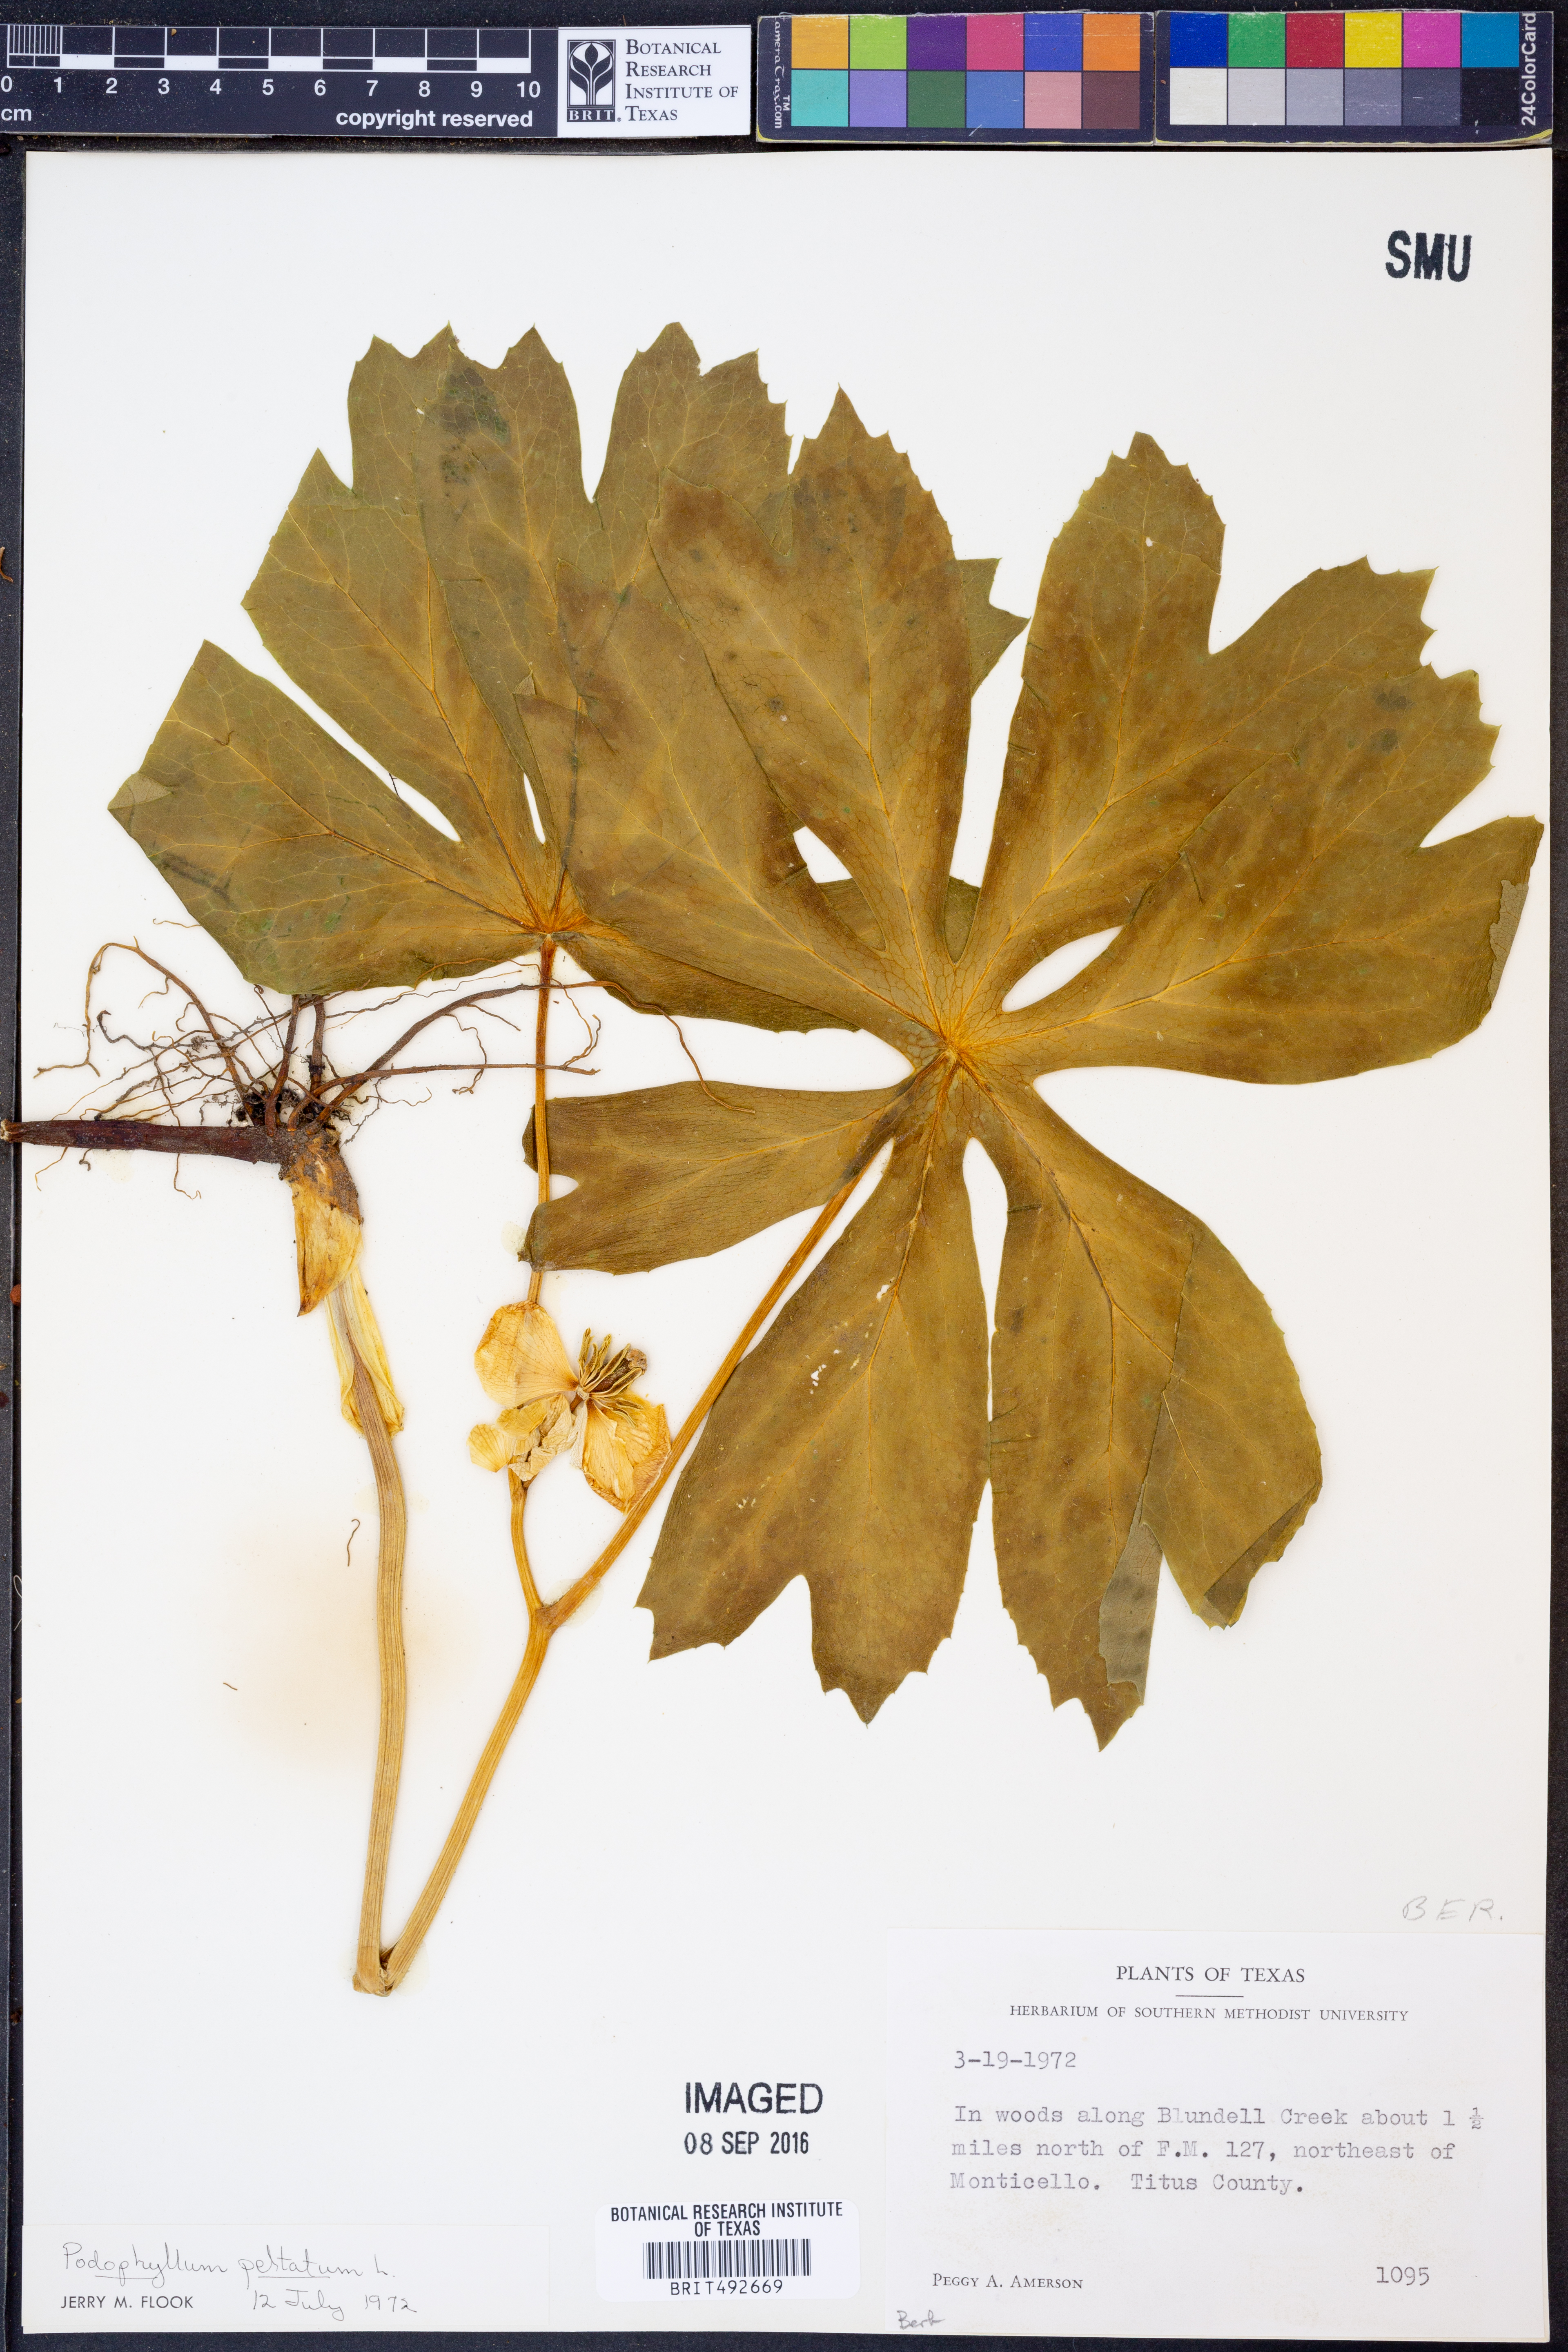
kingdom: Plantae
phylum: Tracheophyta
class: Magnoliopsida
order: Ranunculales
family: Berberidaceae
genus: Podophyllum
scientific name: Podophyllum peltatum
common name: Wild mandrake
